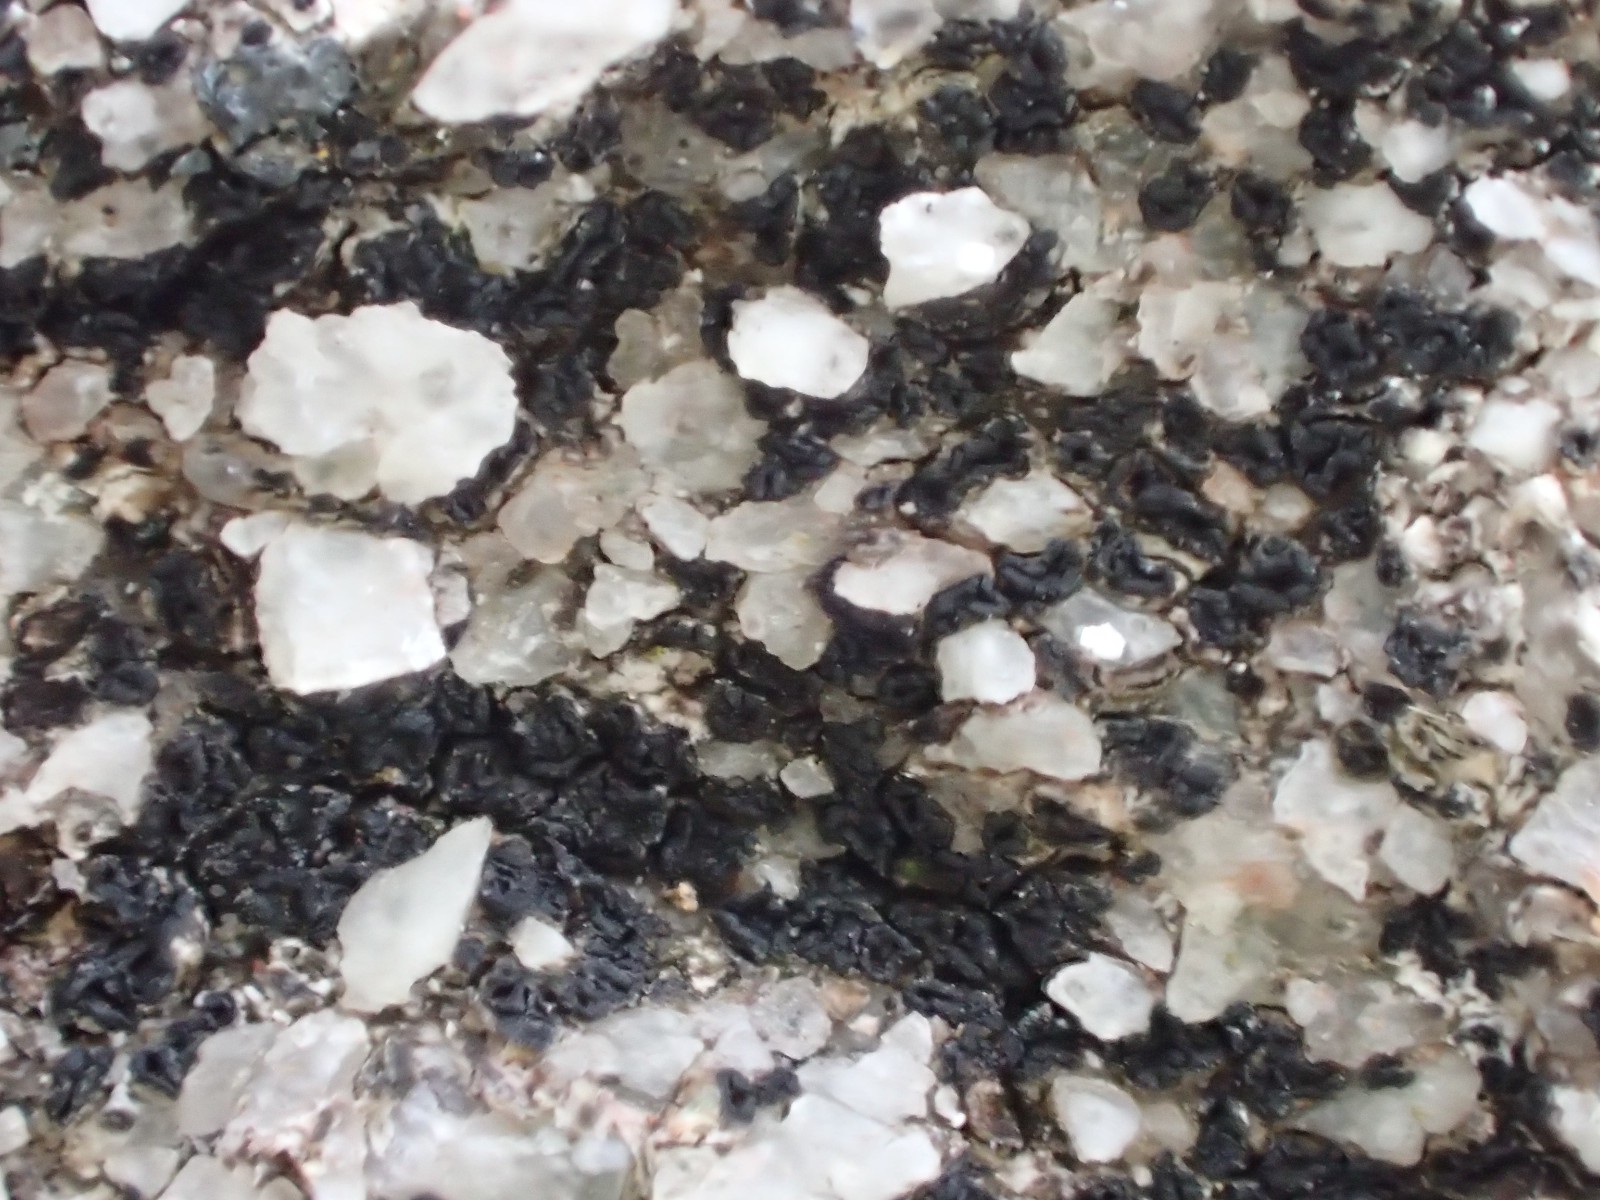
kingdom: Fungi
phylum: Ascomycota
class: Lecanoromycetes
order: Acarosporales
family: Acarosporaceae
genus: Acarospora
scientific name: Acarospora privigna
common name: sort foldekantlav
